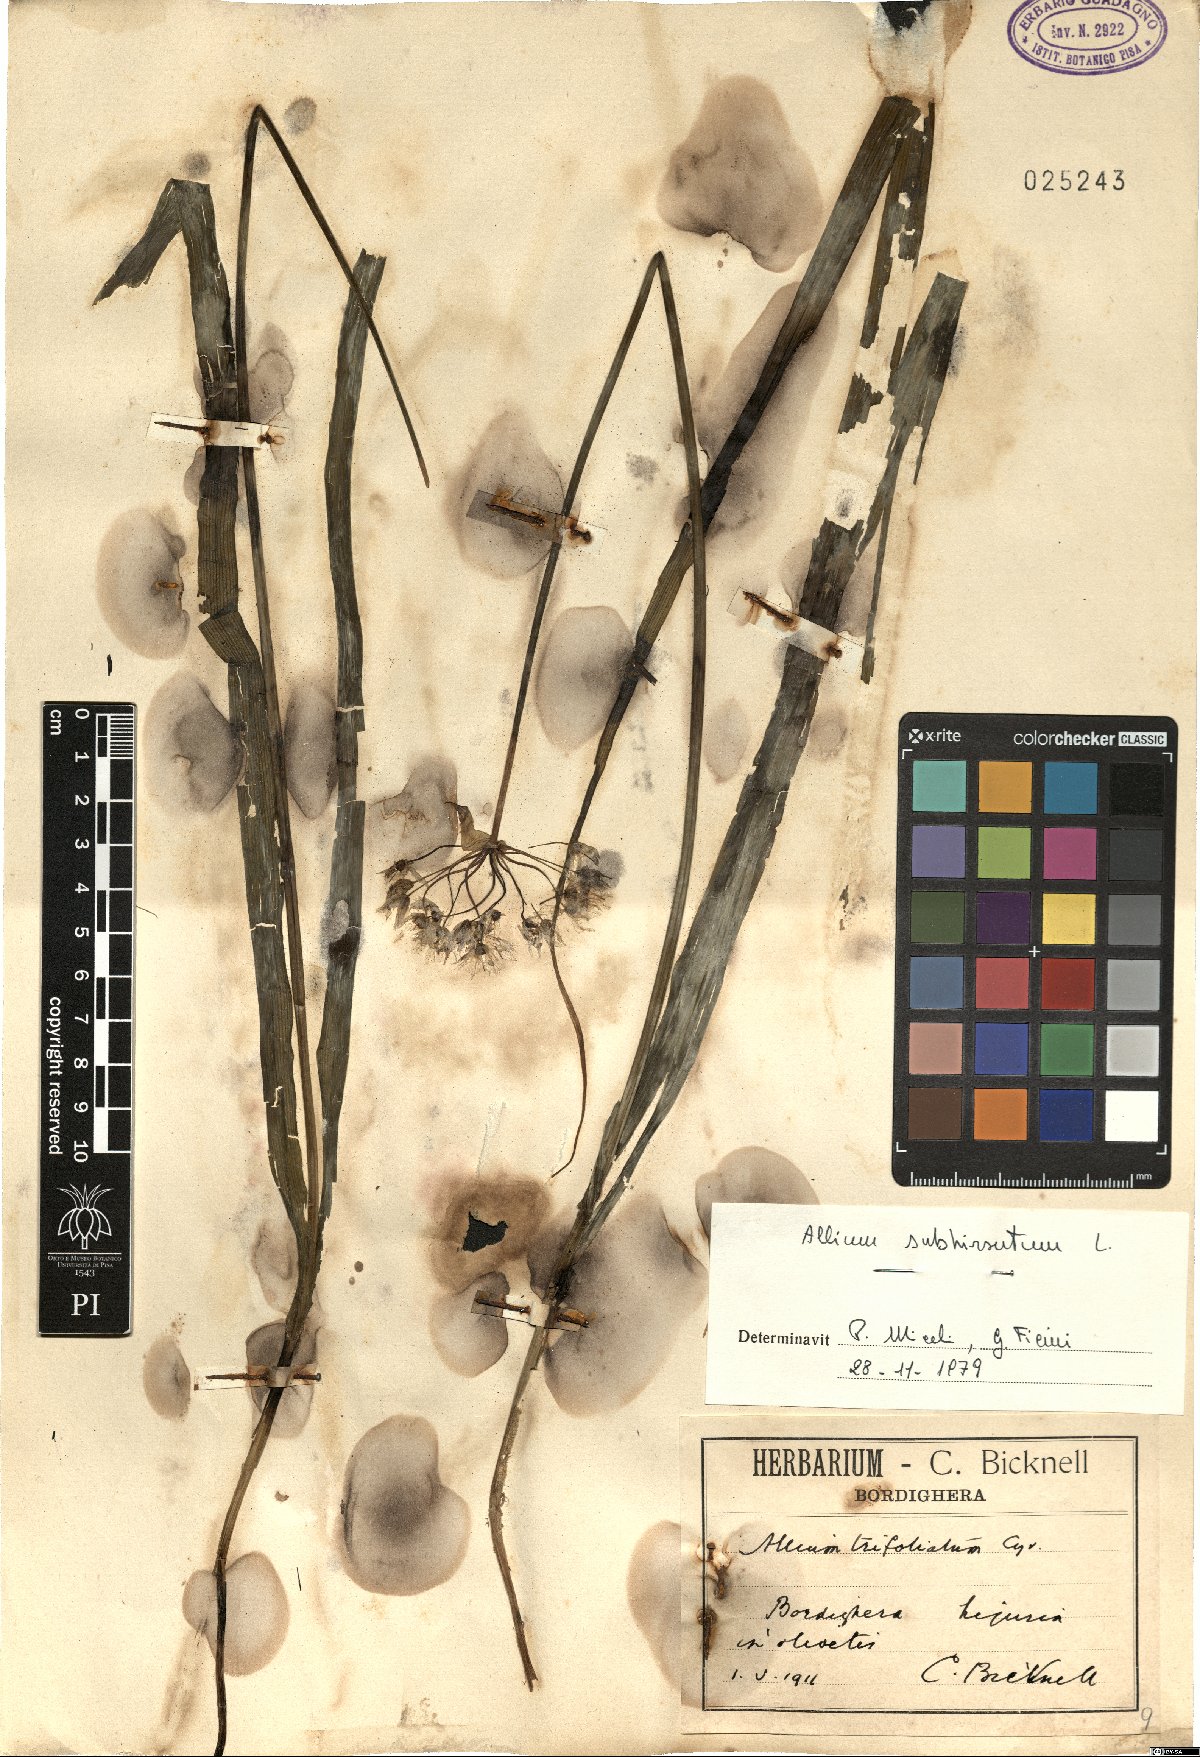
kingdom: Plantae
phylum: Tracheophyta
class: Liliopsida
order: Asparagales
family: Amaryllidaceae
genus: Allium
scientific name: Allium subhirsutum
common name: Hairy garlic
